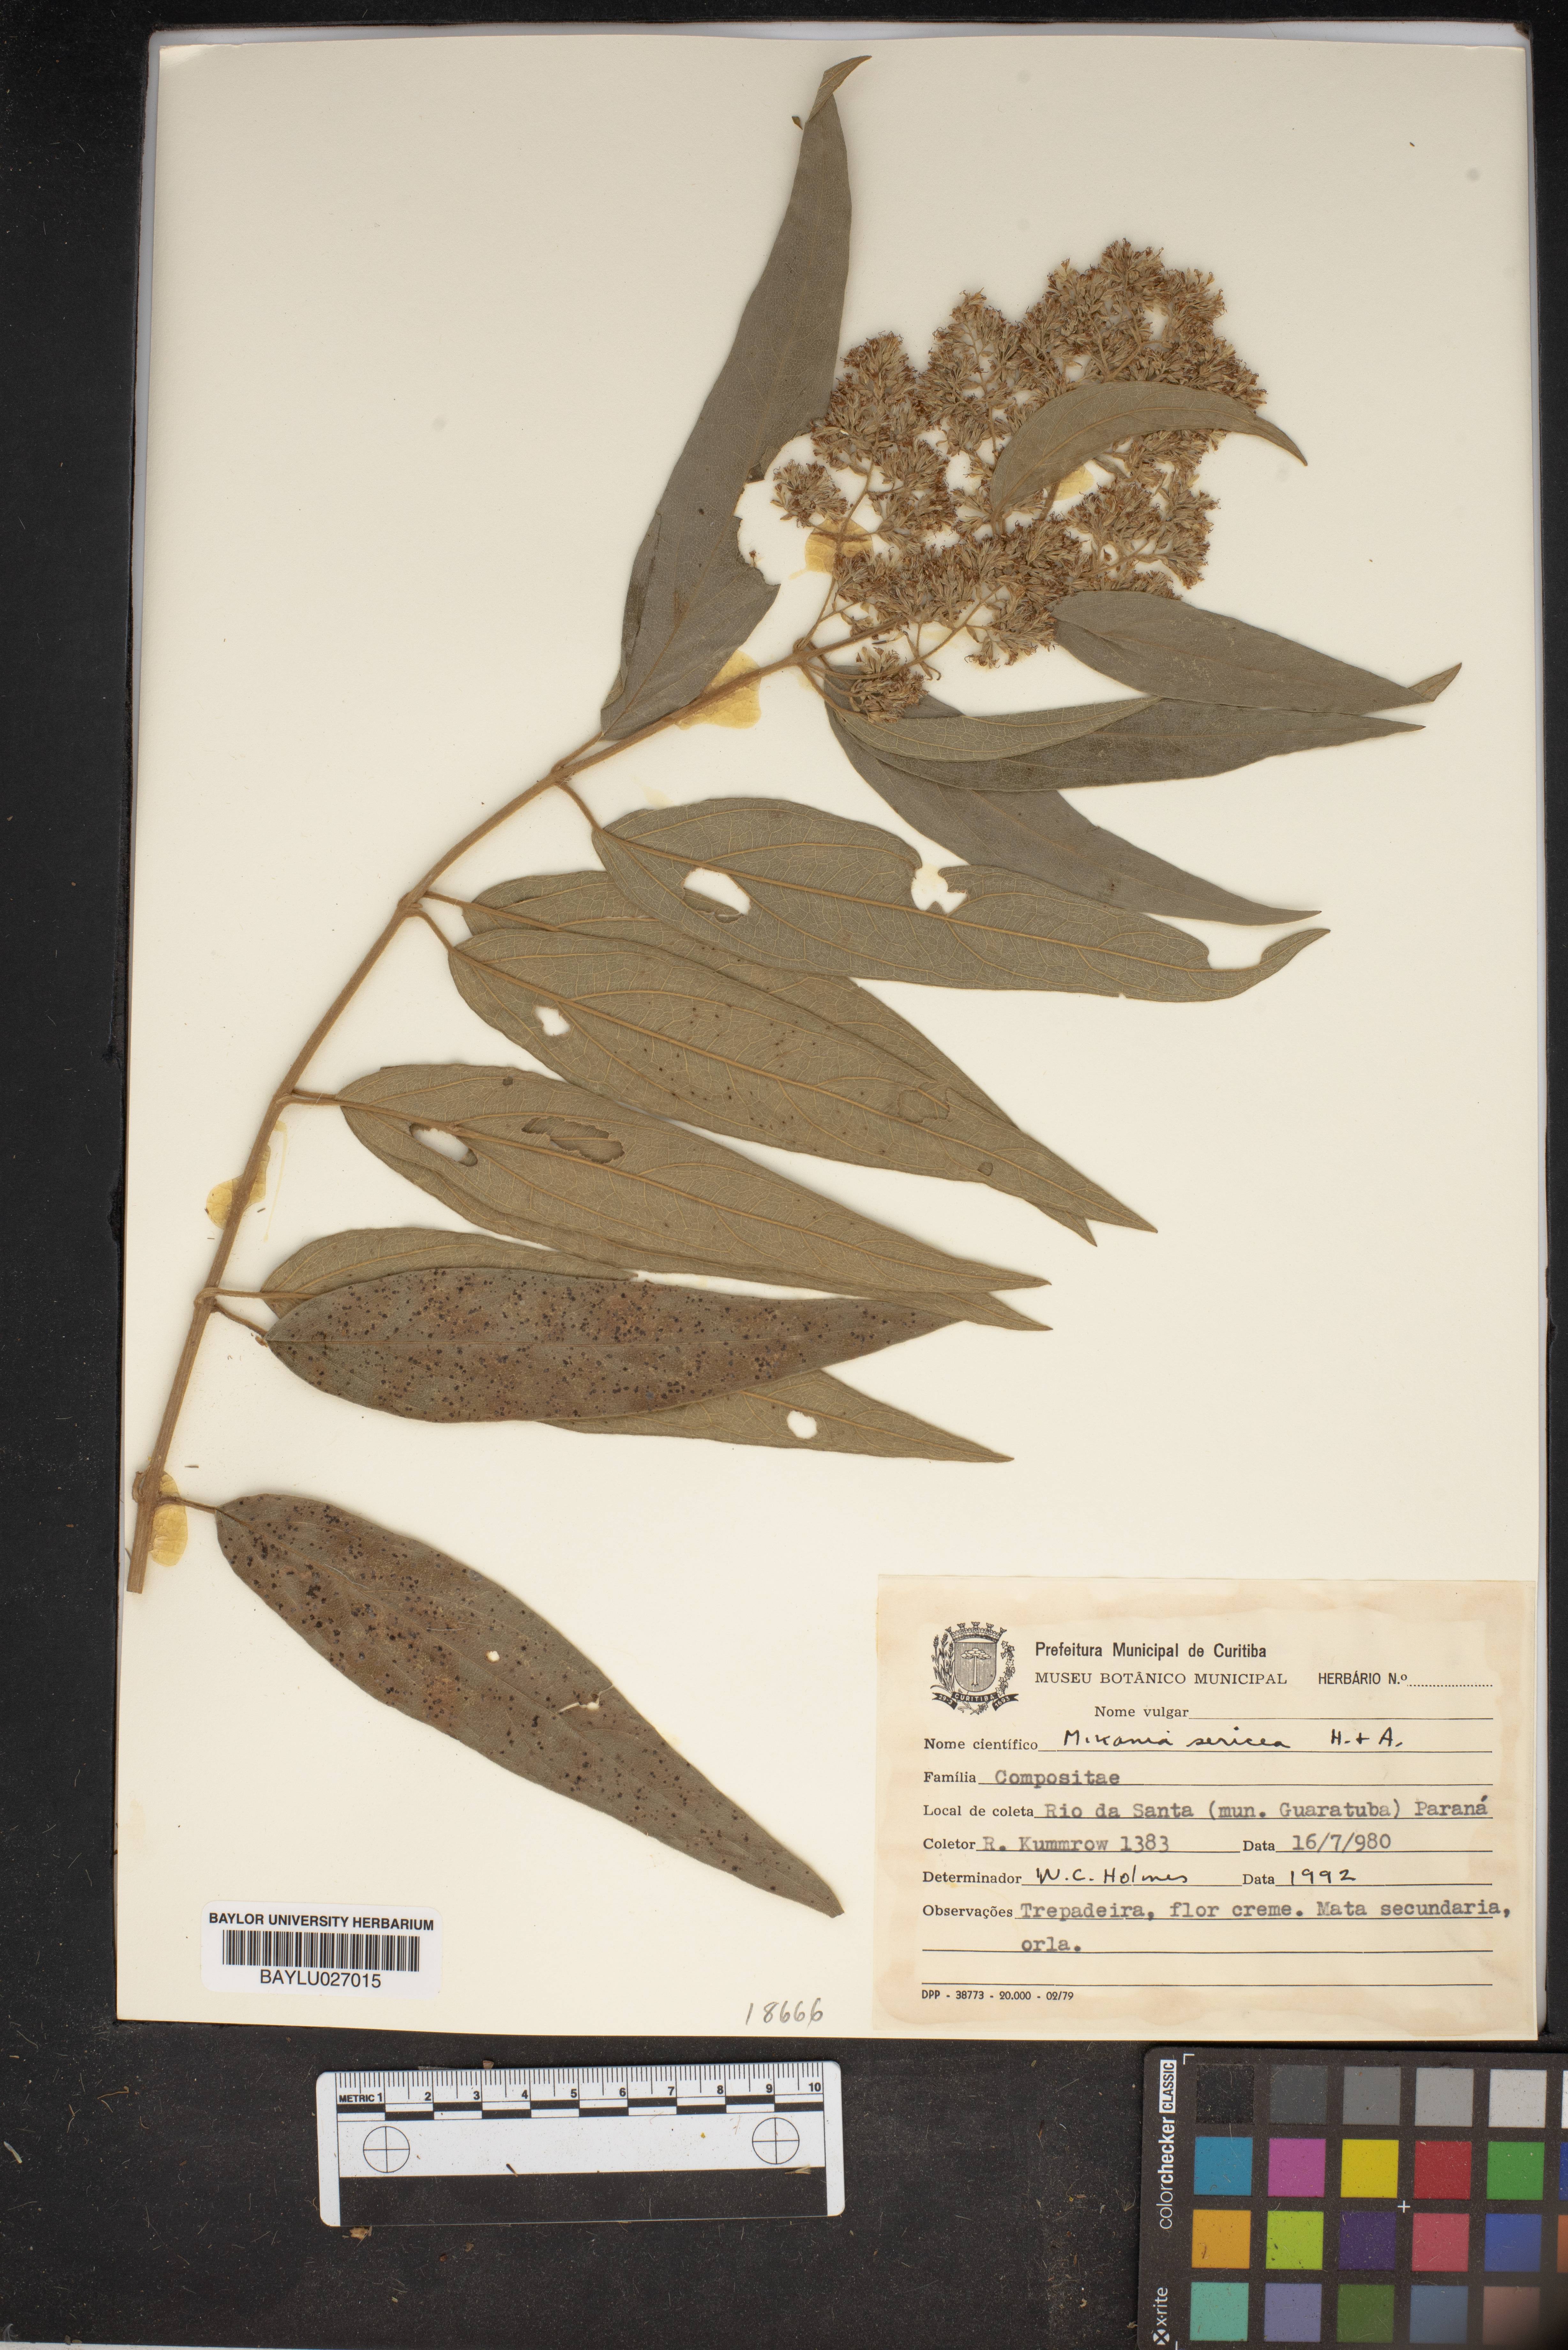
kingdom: Plantae
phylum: Tracheophyta
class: Magnoliopsida
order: Asterales
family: Asteraceae
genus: Mikania
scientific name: Mikania sericea
